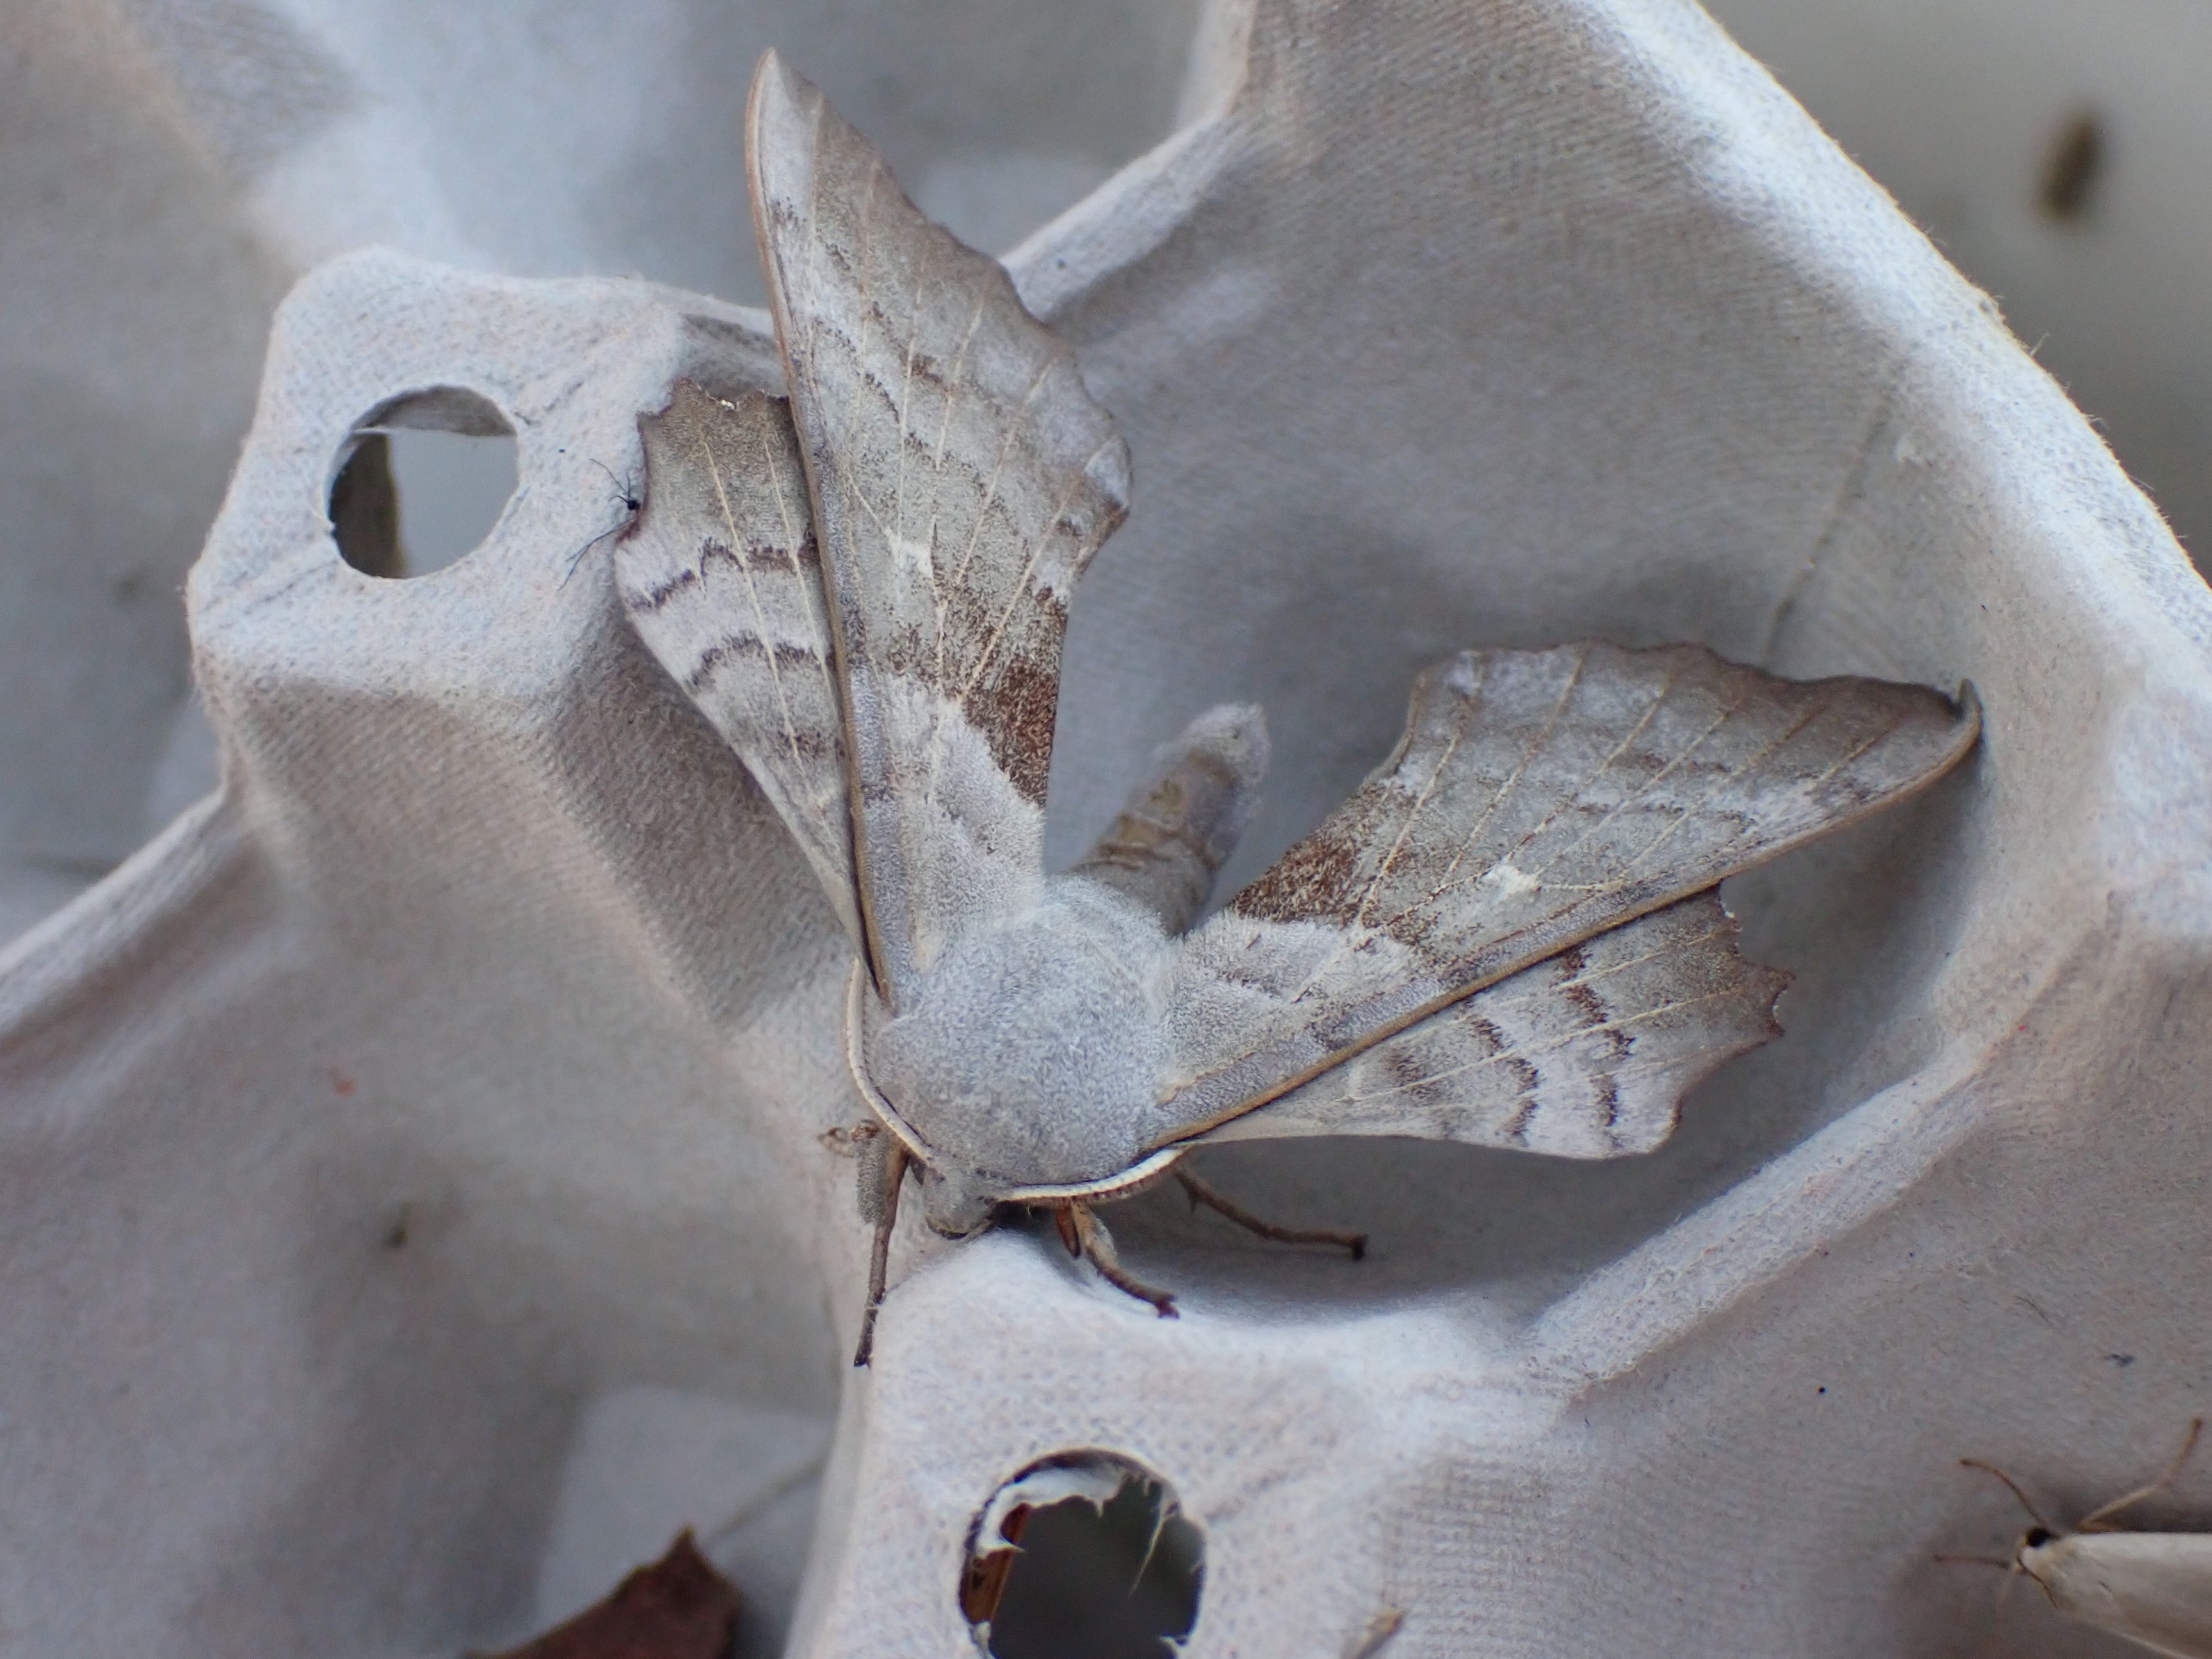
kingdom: Animalia
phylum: Arthropoda
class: Insecta
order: Lepidoptera
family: Sphingidae
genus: Laothoe
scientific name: Laothoe populi
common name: Poppelsværmer
